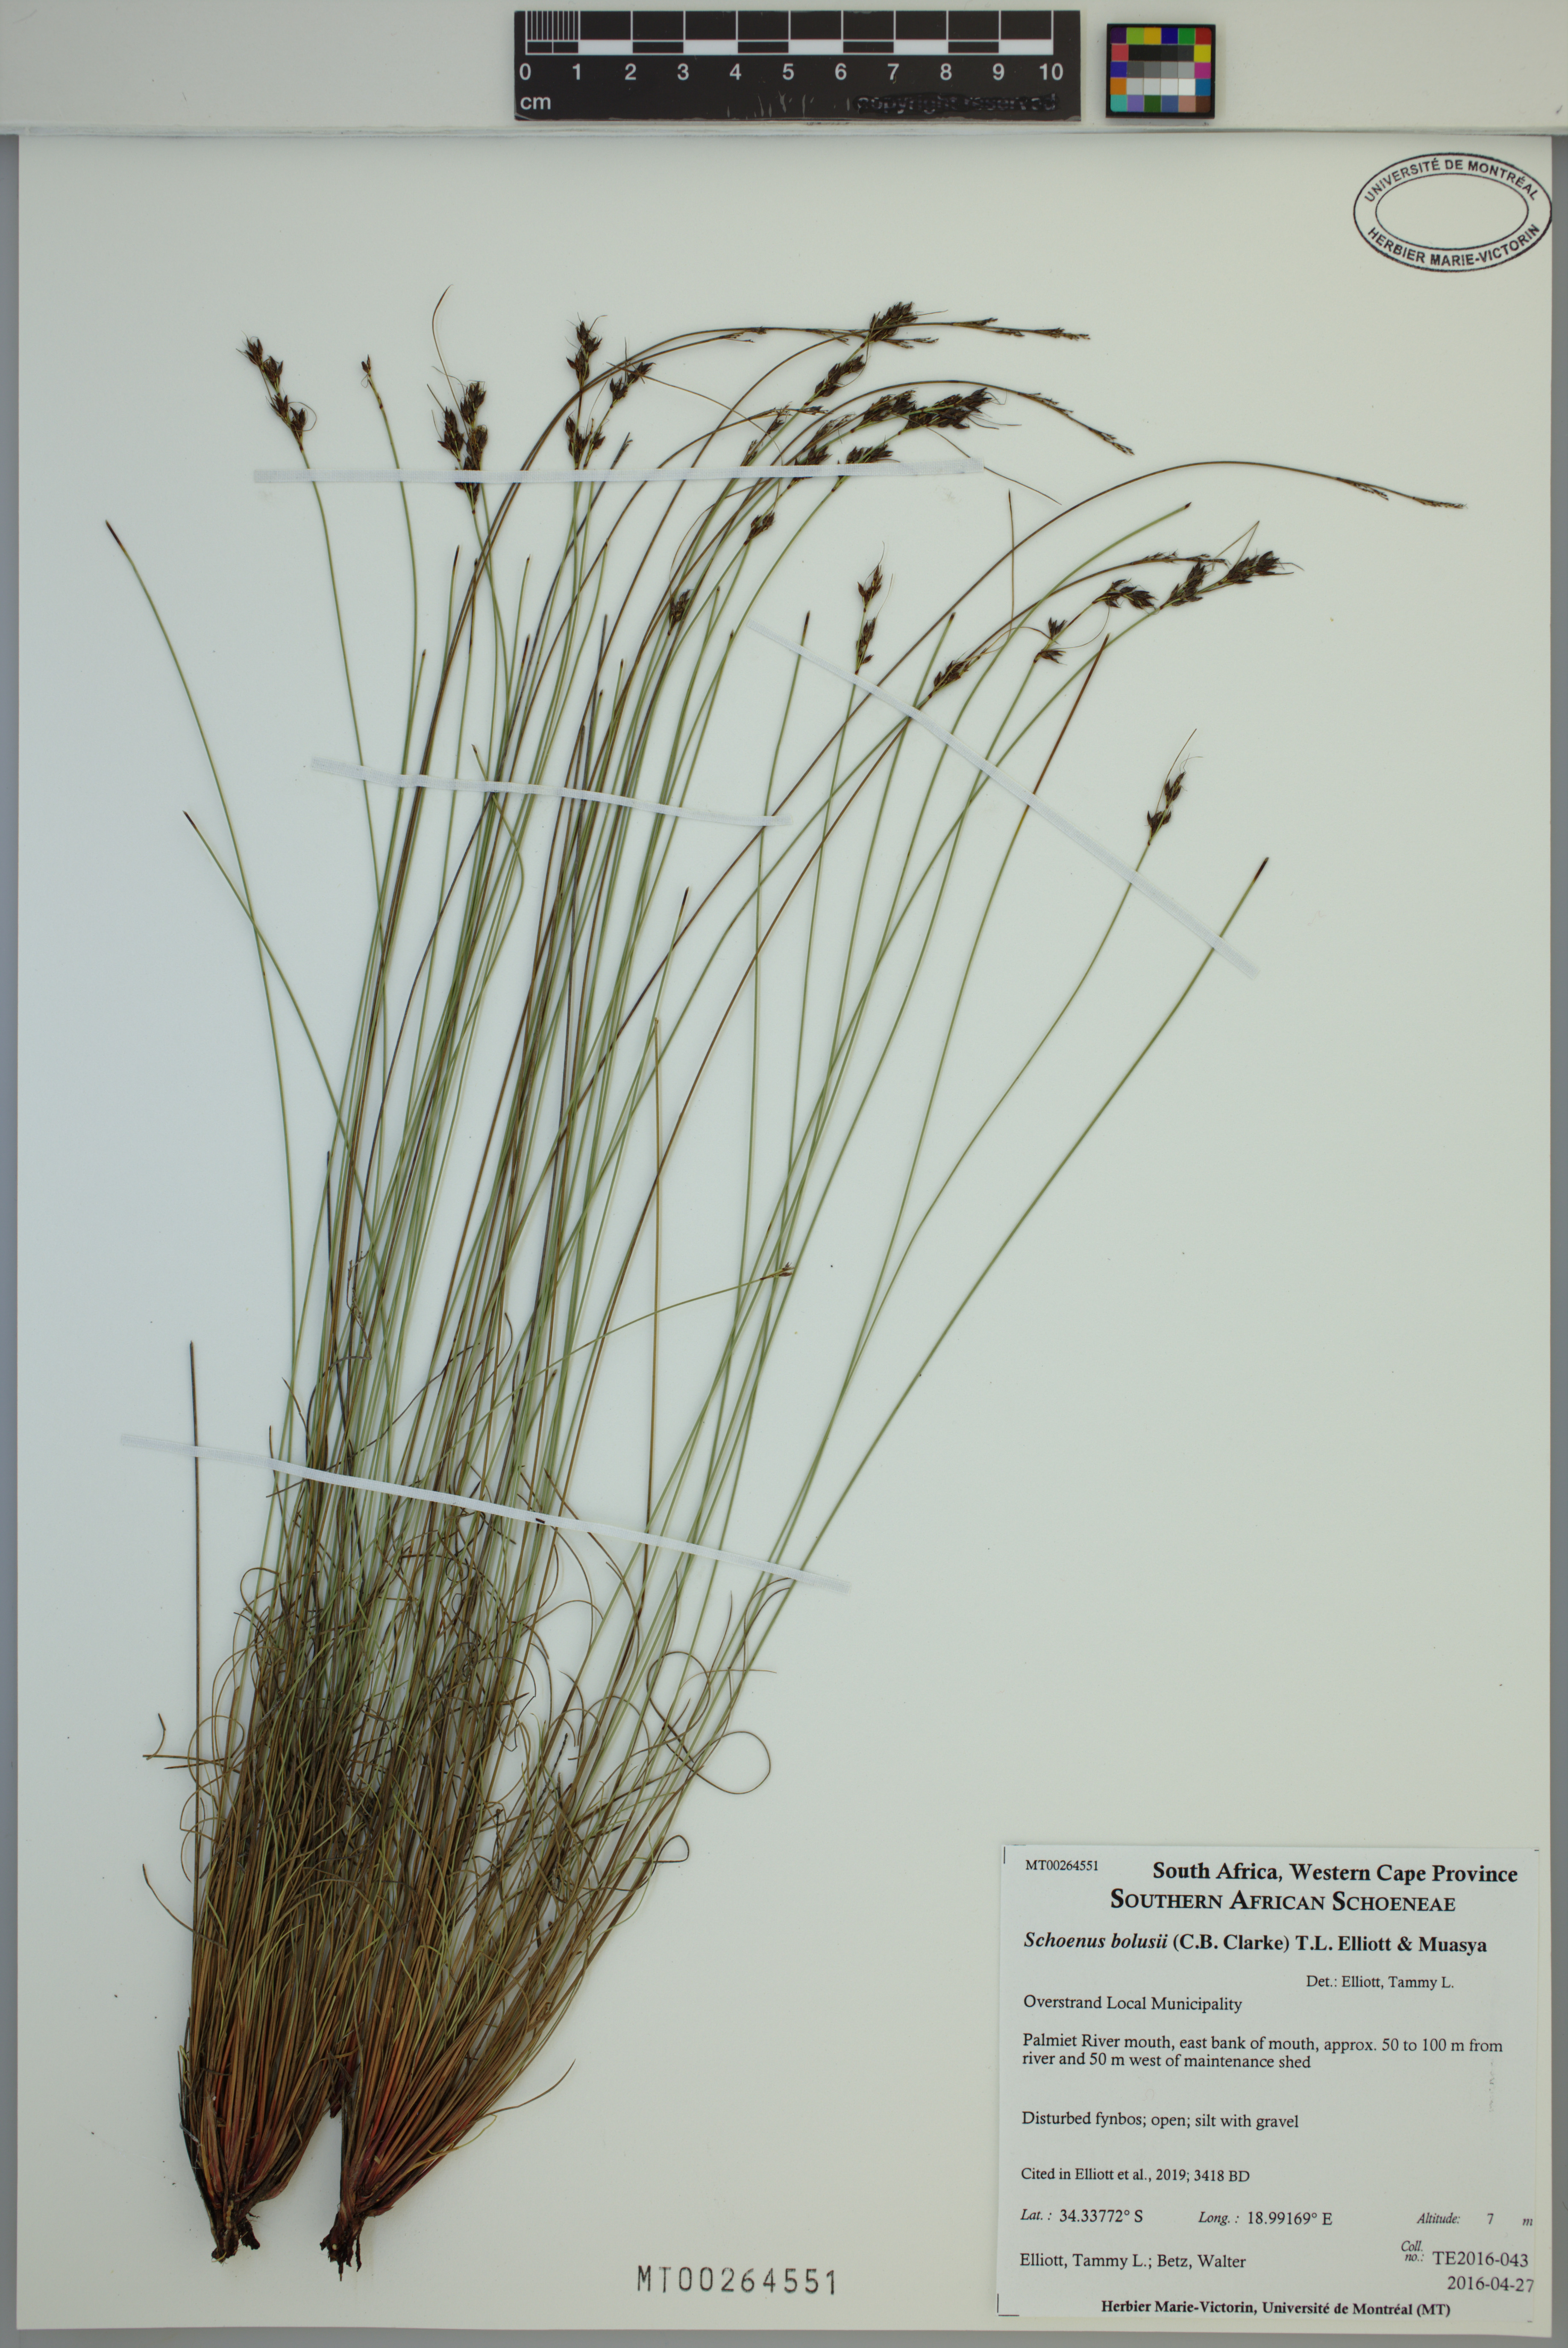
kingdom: Plantae
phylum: Tracheophyta
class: Liliopsida
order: Poales
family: Cyperaceae
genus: Schoenus
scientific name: Schoenus bolusii
